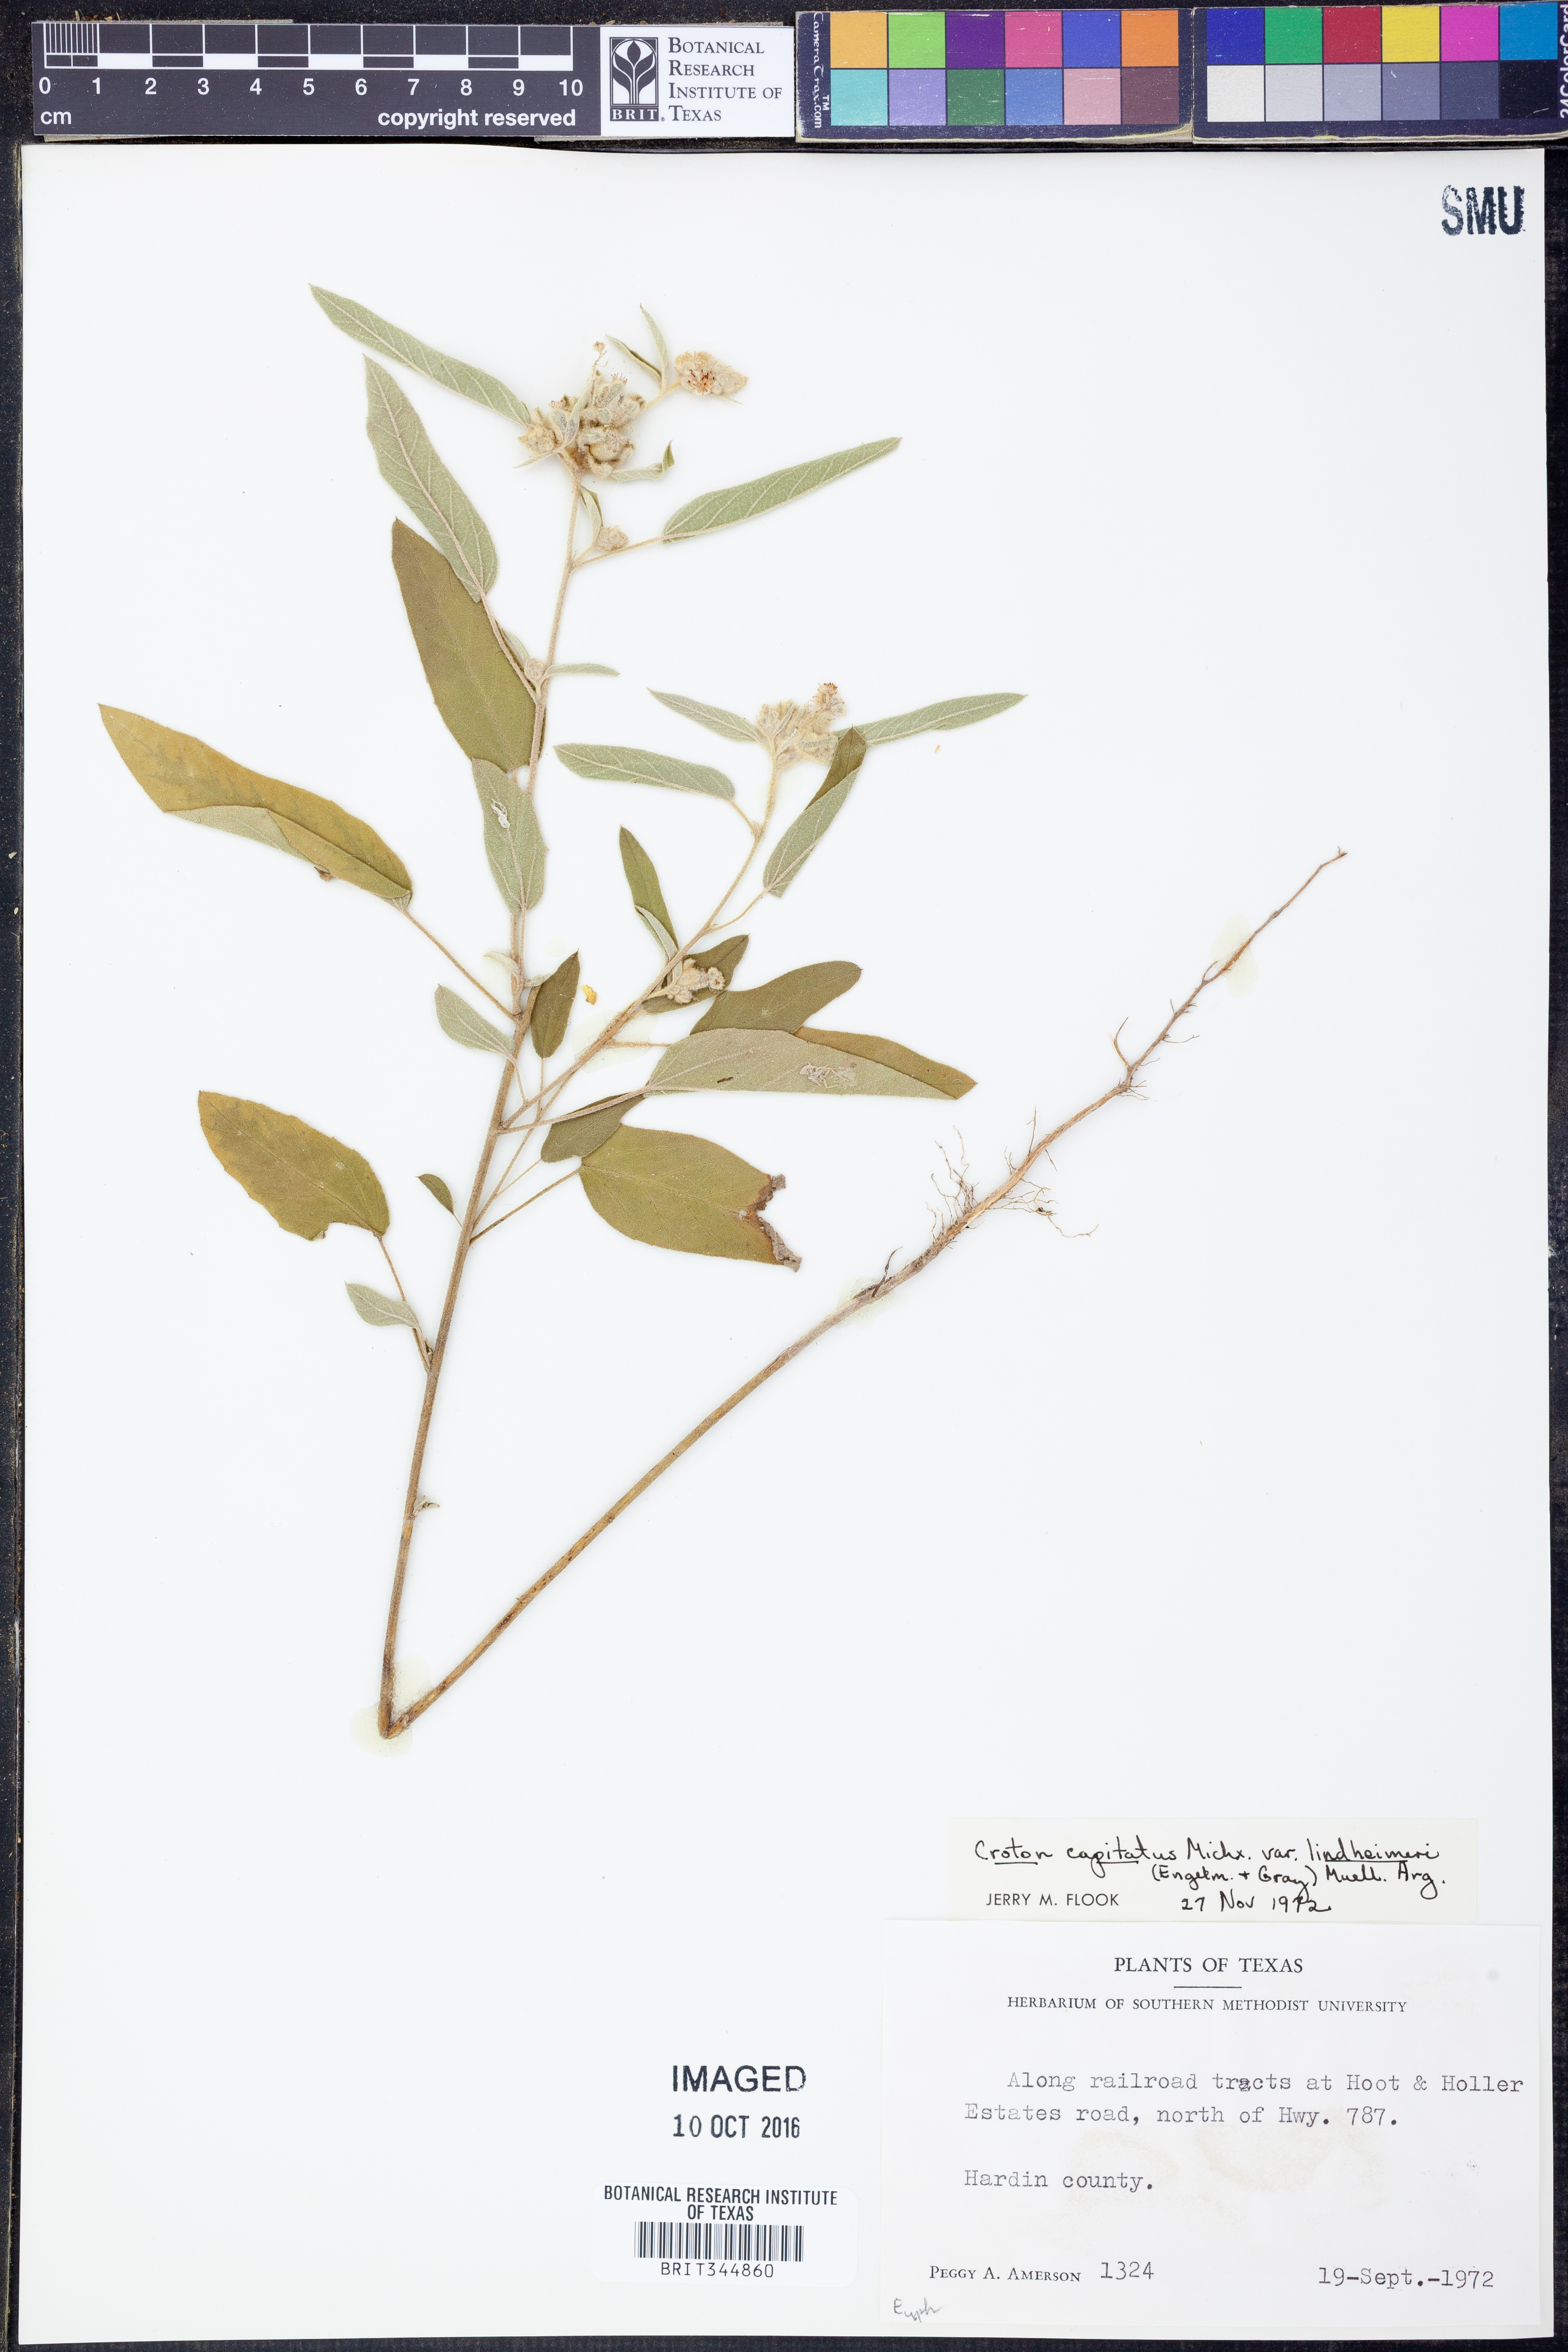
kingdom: Plantae
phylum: Tracheophyta
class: Magnoliopsida
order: Malpighiales
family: Euphorbiaceae
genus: Croton
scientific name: Croton lindheimeri
